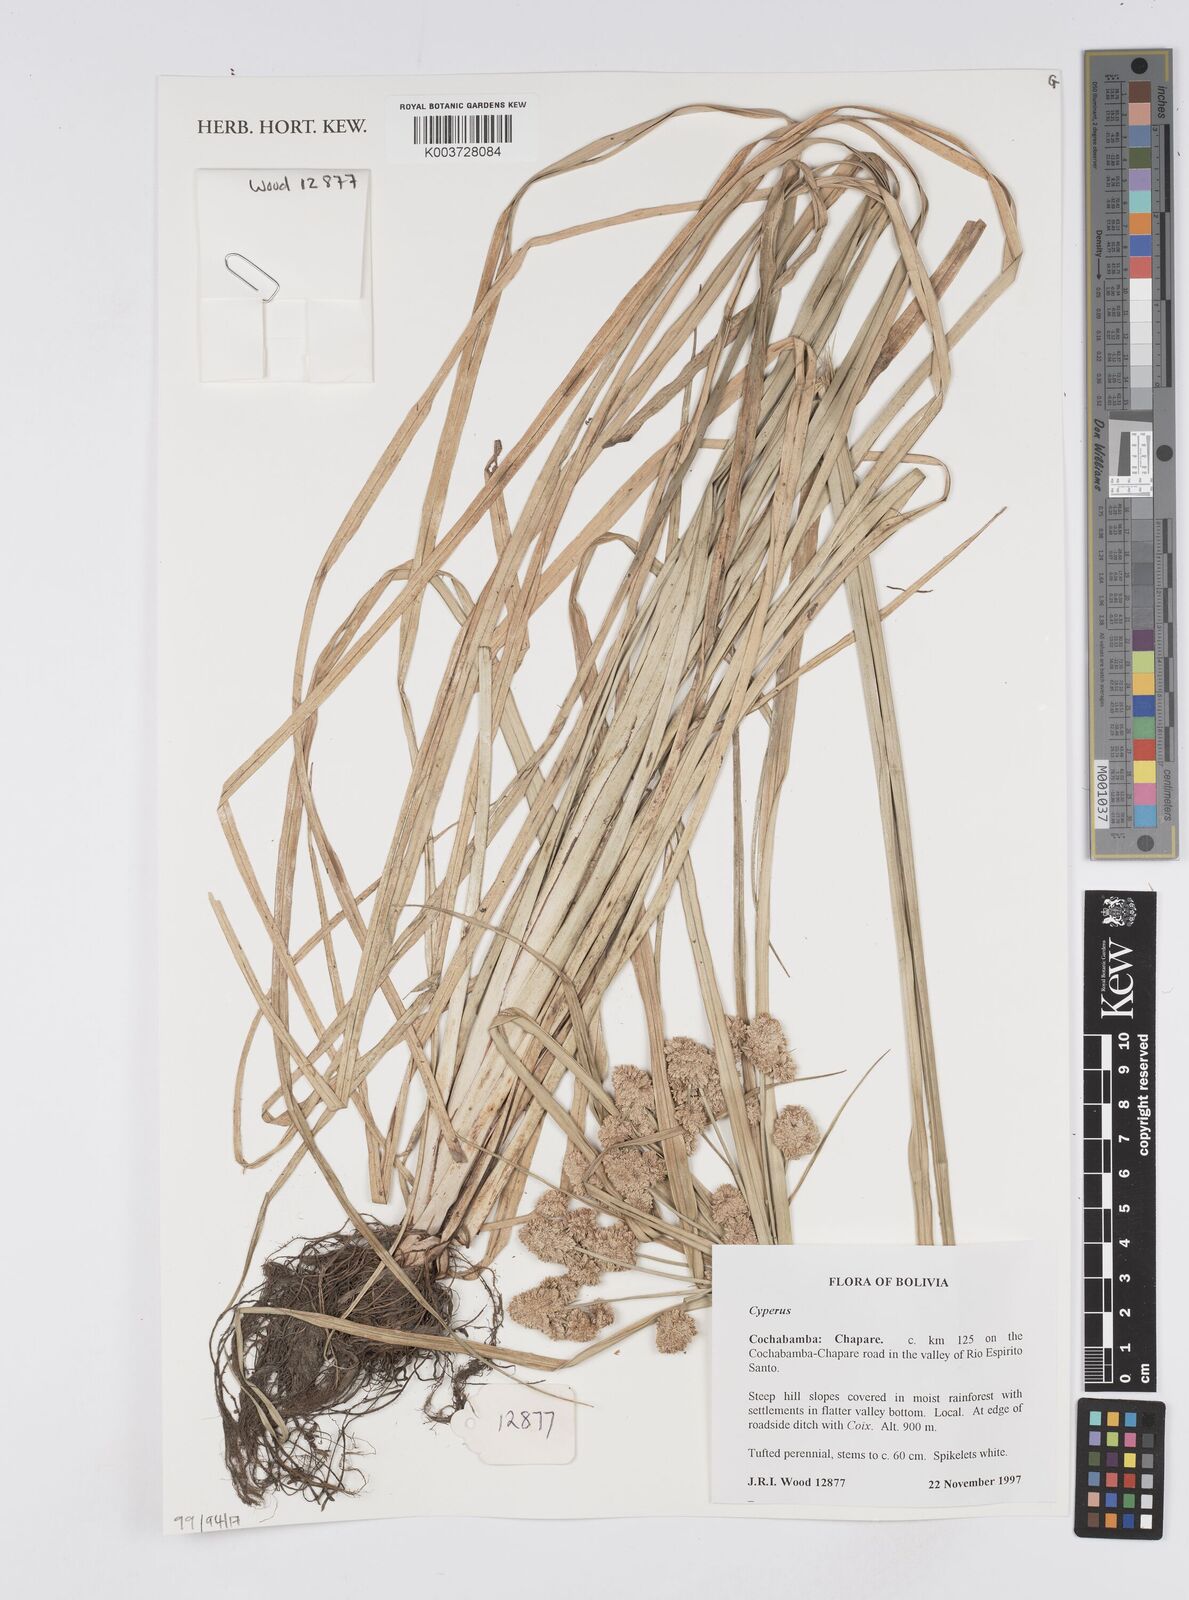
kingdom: Plantae
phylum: Tracheophyta
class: Liliopsida
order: Poales
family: Cyperaceae
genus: Cyperus
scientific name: Cyperus
